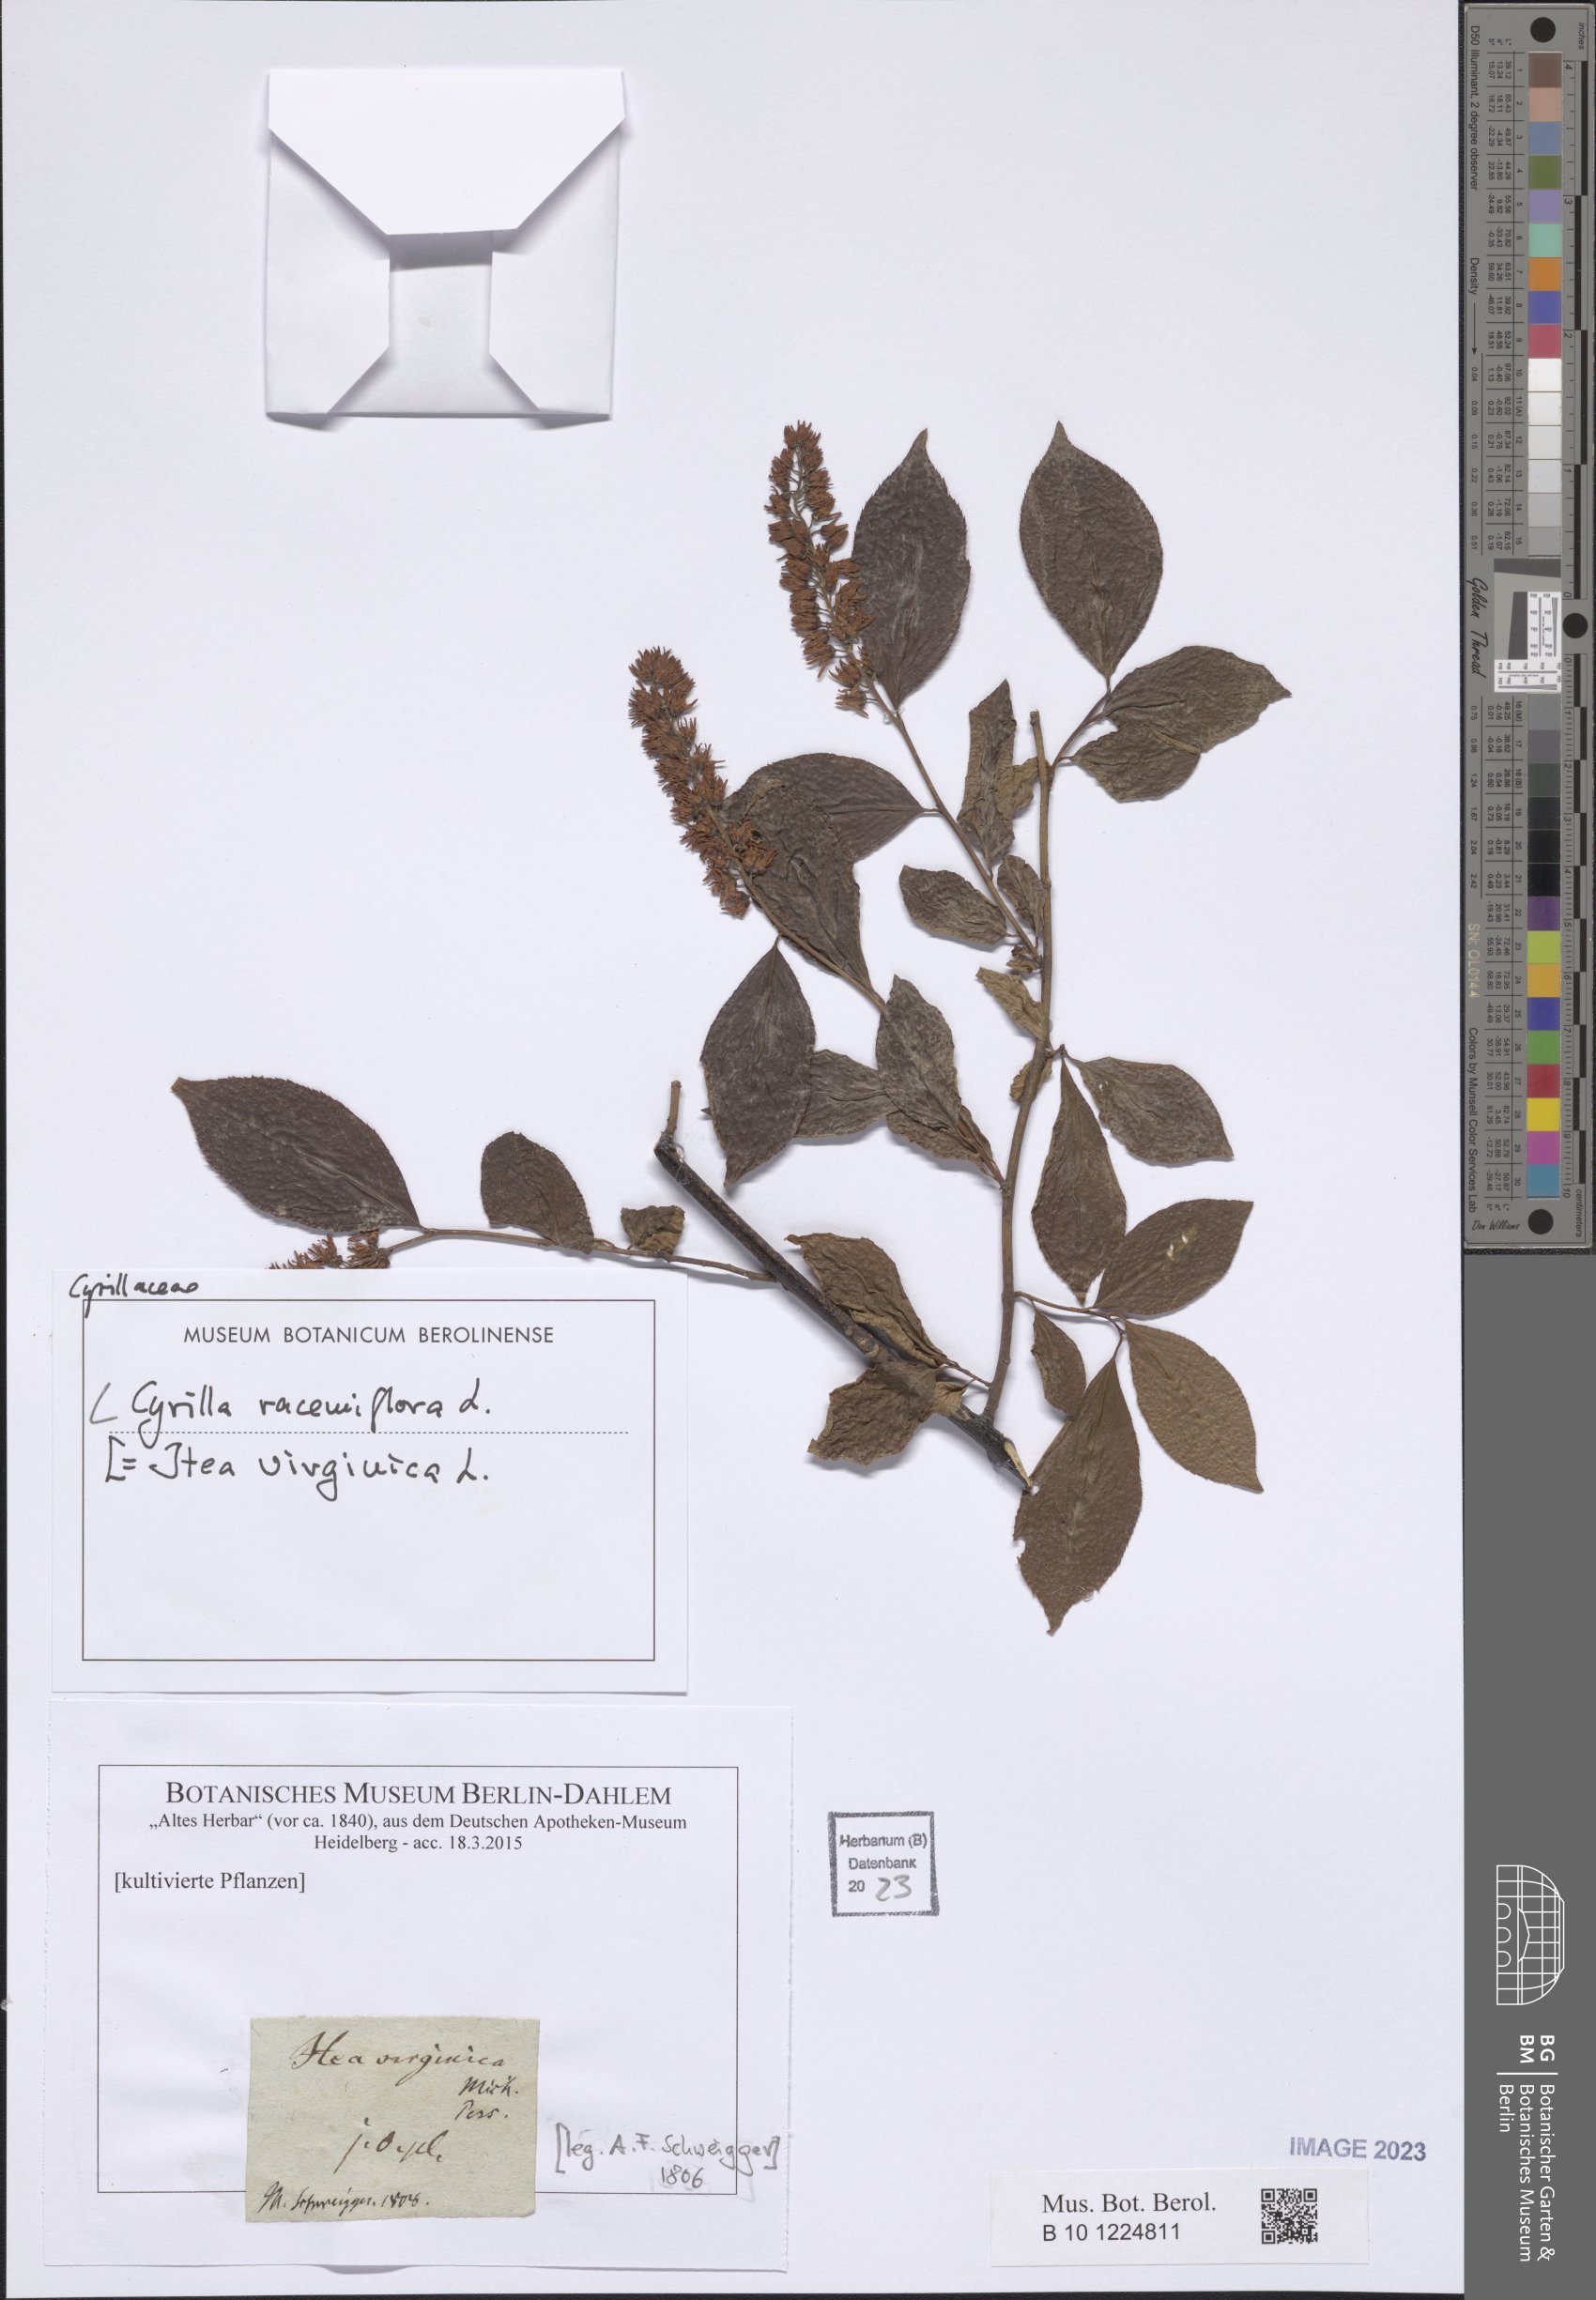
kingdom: Plantae
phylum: Tracheophyta
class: Magnoliopsida
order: Ericales
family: Cyrillaceae
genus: Cyrilla
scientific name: Cyrilla racemiflora
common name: Black titi
